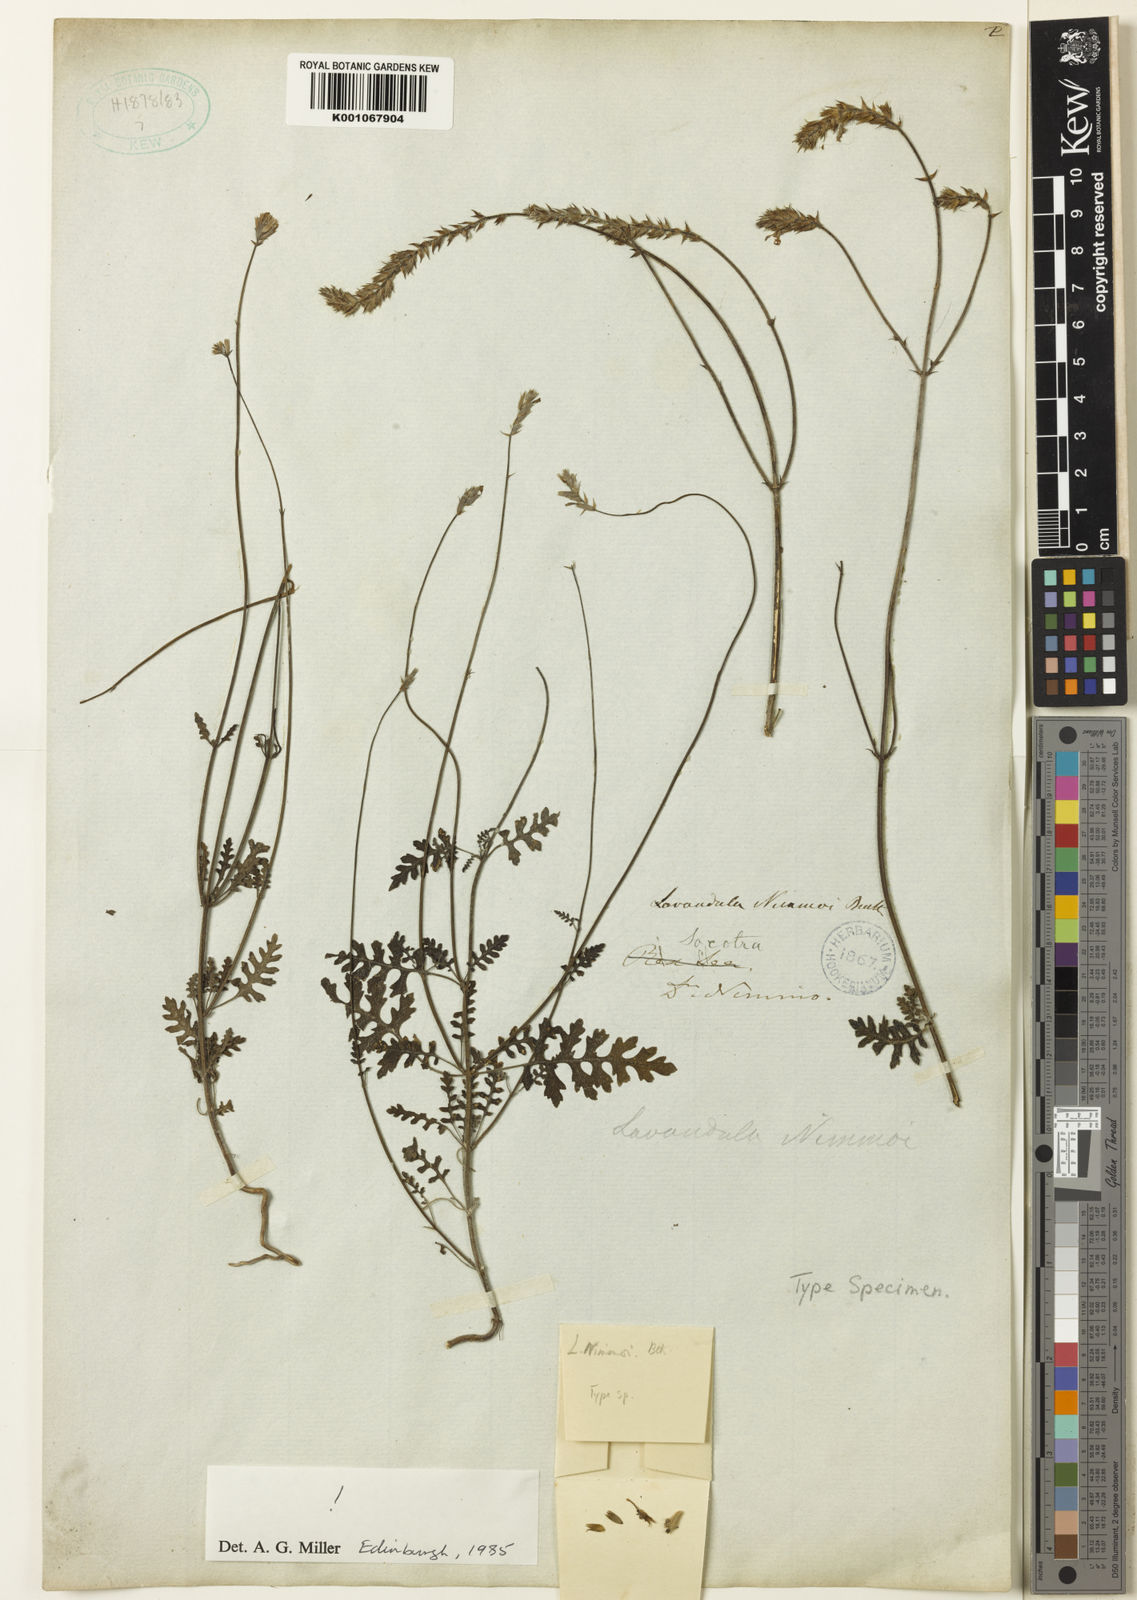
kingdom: Plantae
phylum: Tracheophyta
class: Magnoliopsida
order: Lamiales
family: Lamiaceae
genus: Lavandula
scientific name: Lavandula nimmoi
